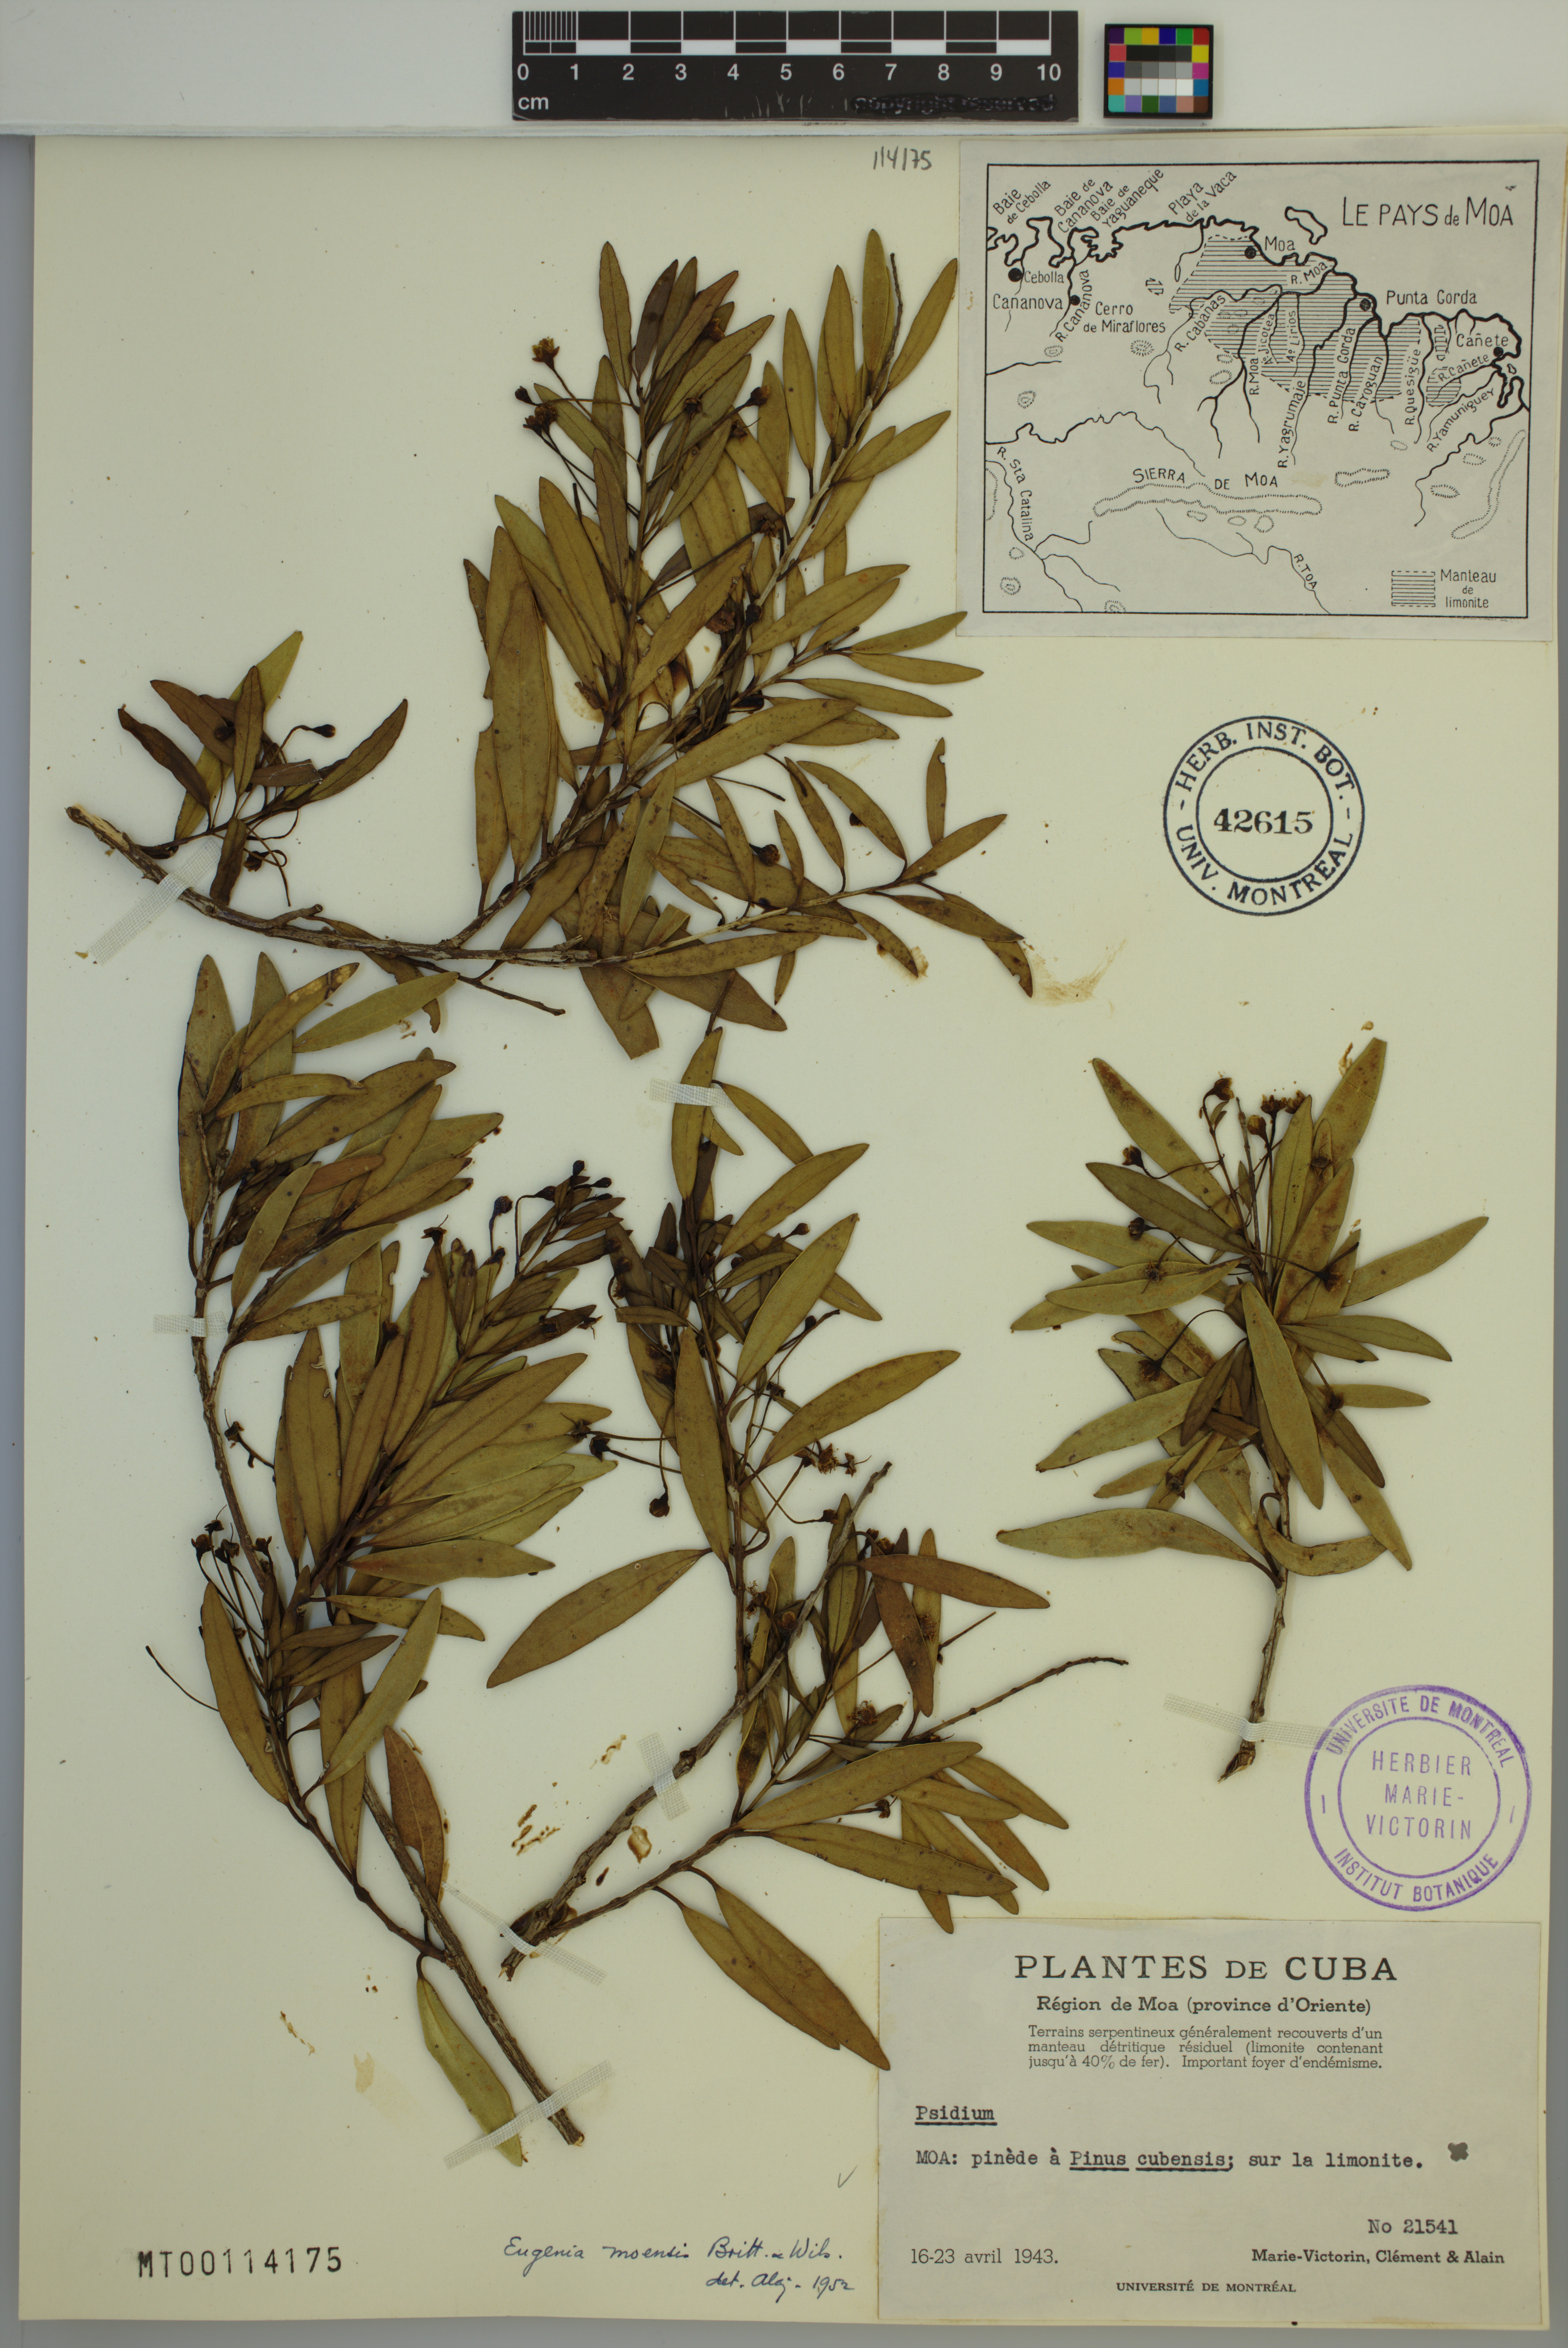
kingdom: Plantae
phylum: Tracheophyta
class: Magnoliopsida
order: Myrtales
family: Myrtaceae
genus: Eugenia
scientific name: Eugenia moensis
